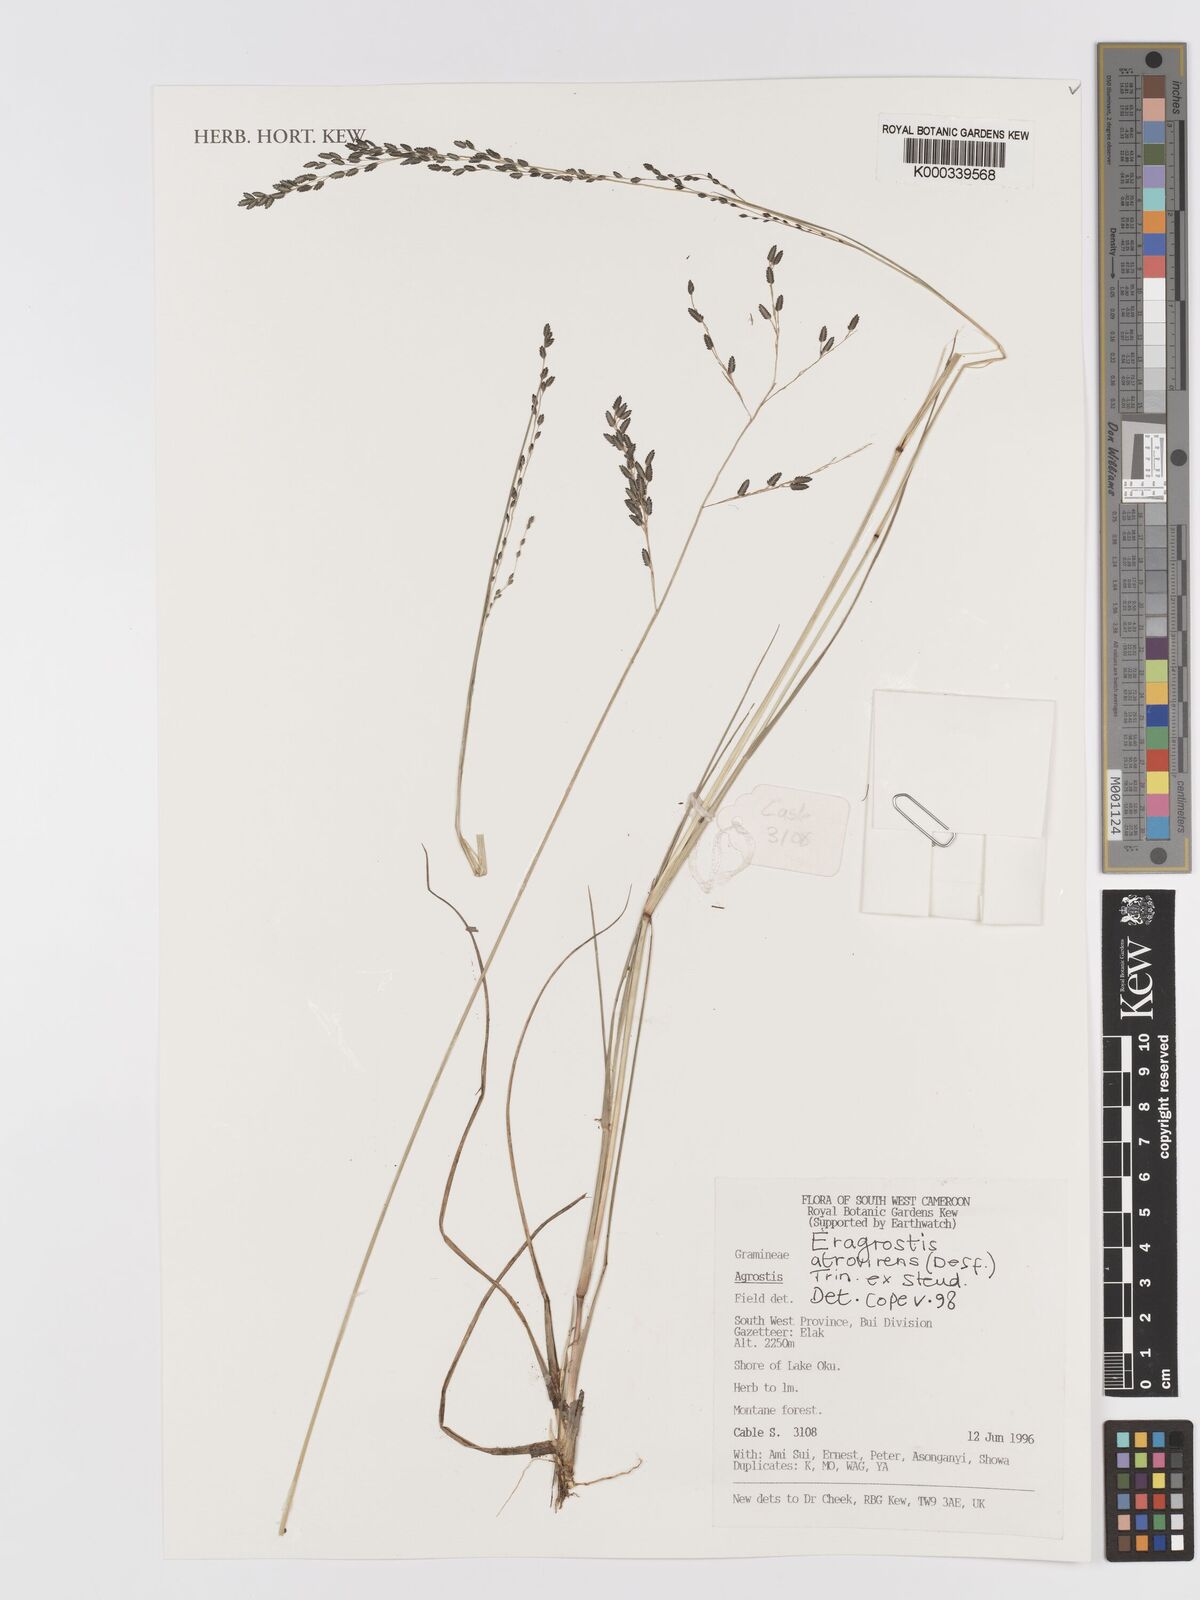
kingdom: Plantae
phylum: Tracheophyta
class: Liliopsida
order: Poales
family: Poaceae
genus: Eragrostis
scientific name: Eragrostis atrovirens
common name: Thalia lovegrass
